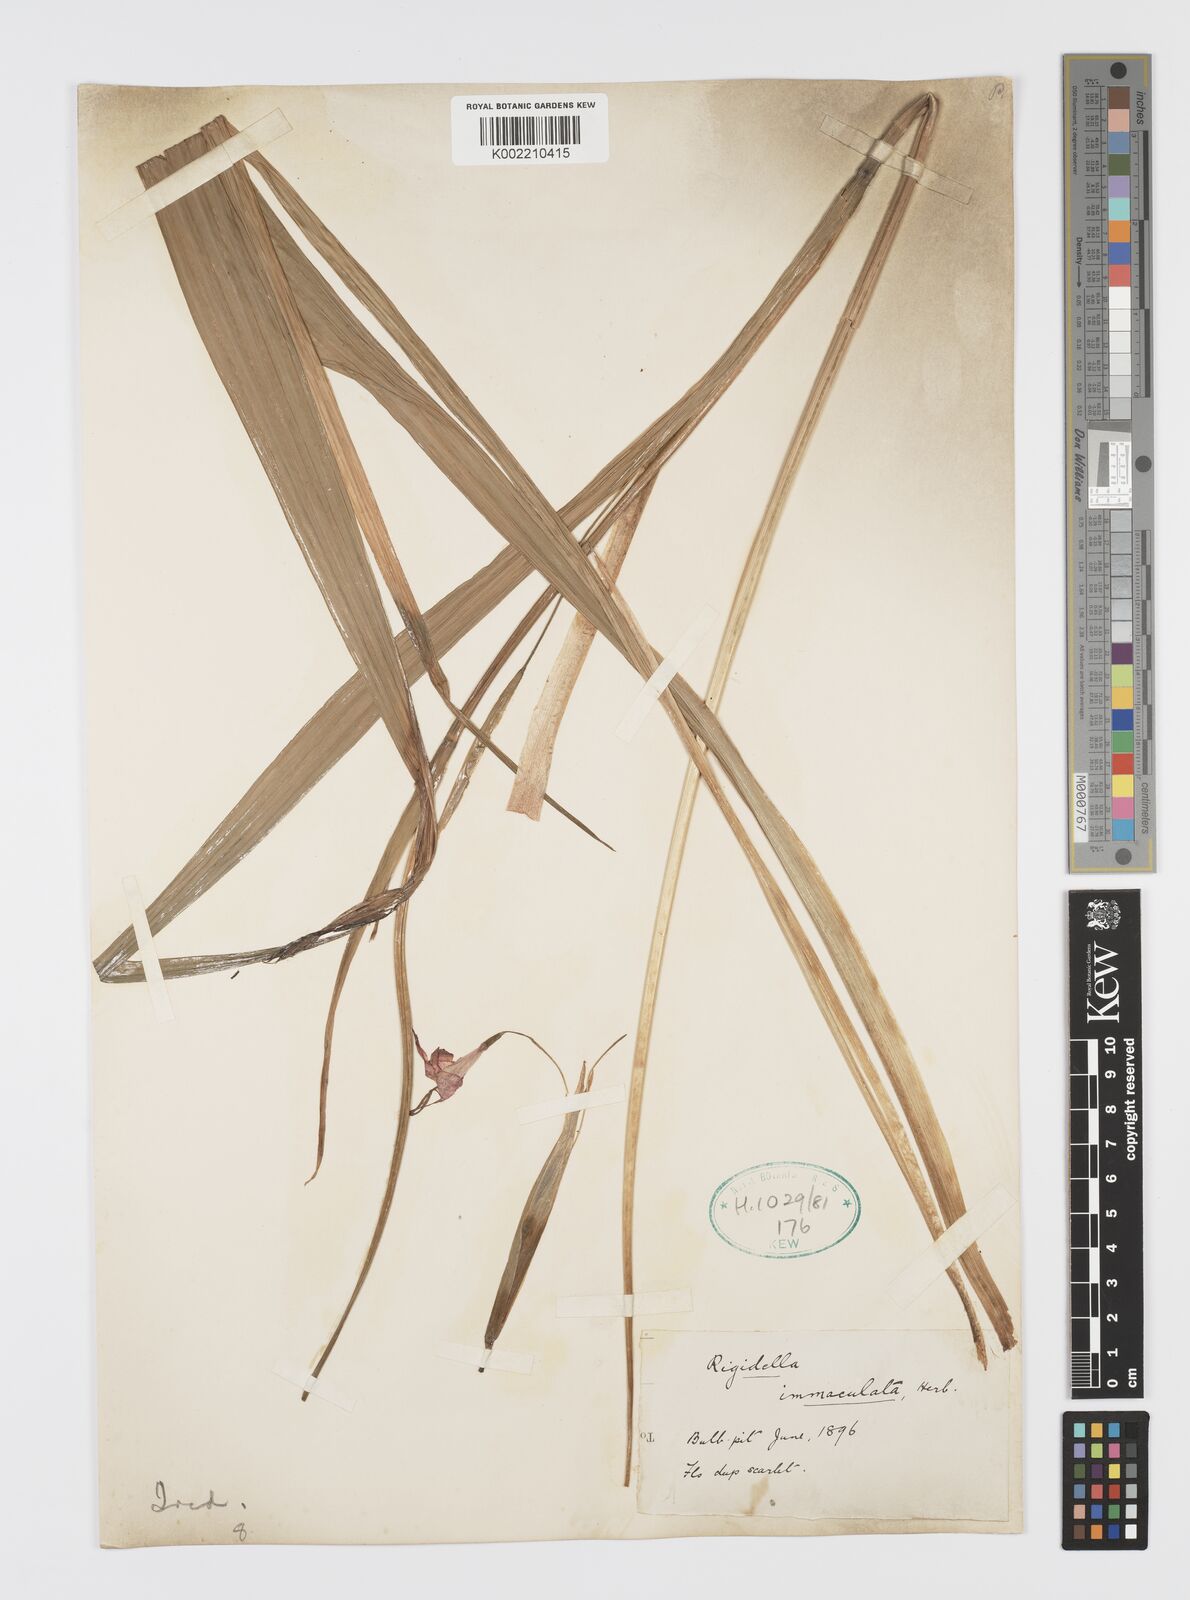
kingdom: Plantae
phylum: Tracheophyta
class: Liliopsida
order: Asparagales
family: Iridaceae
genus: Tigridia
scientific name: Tigridia immaculata
